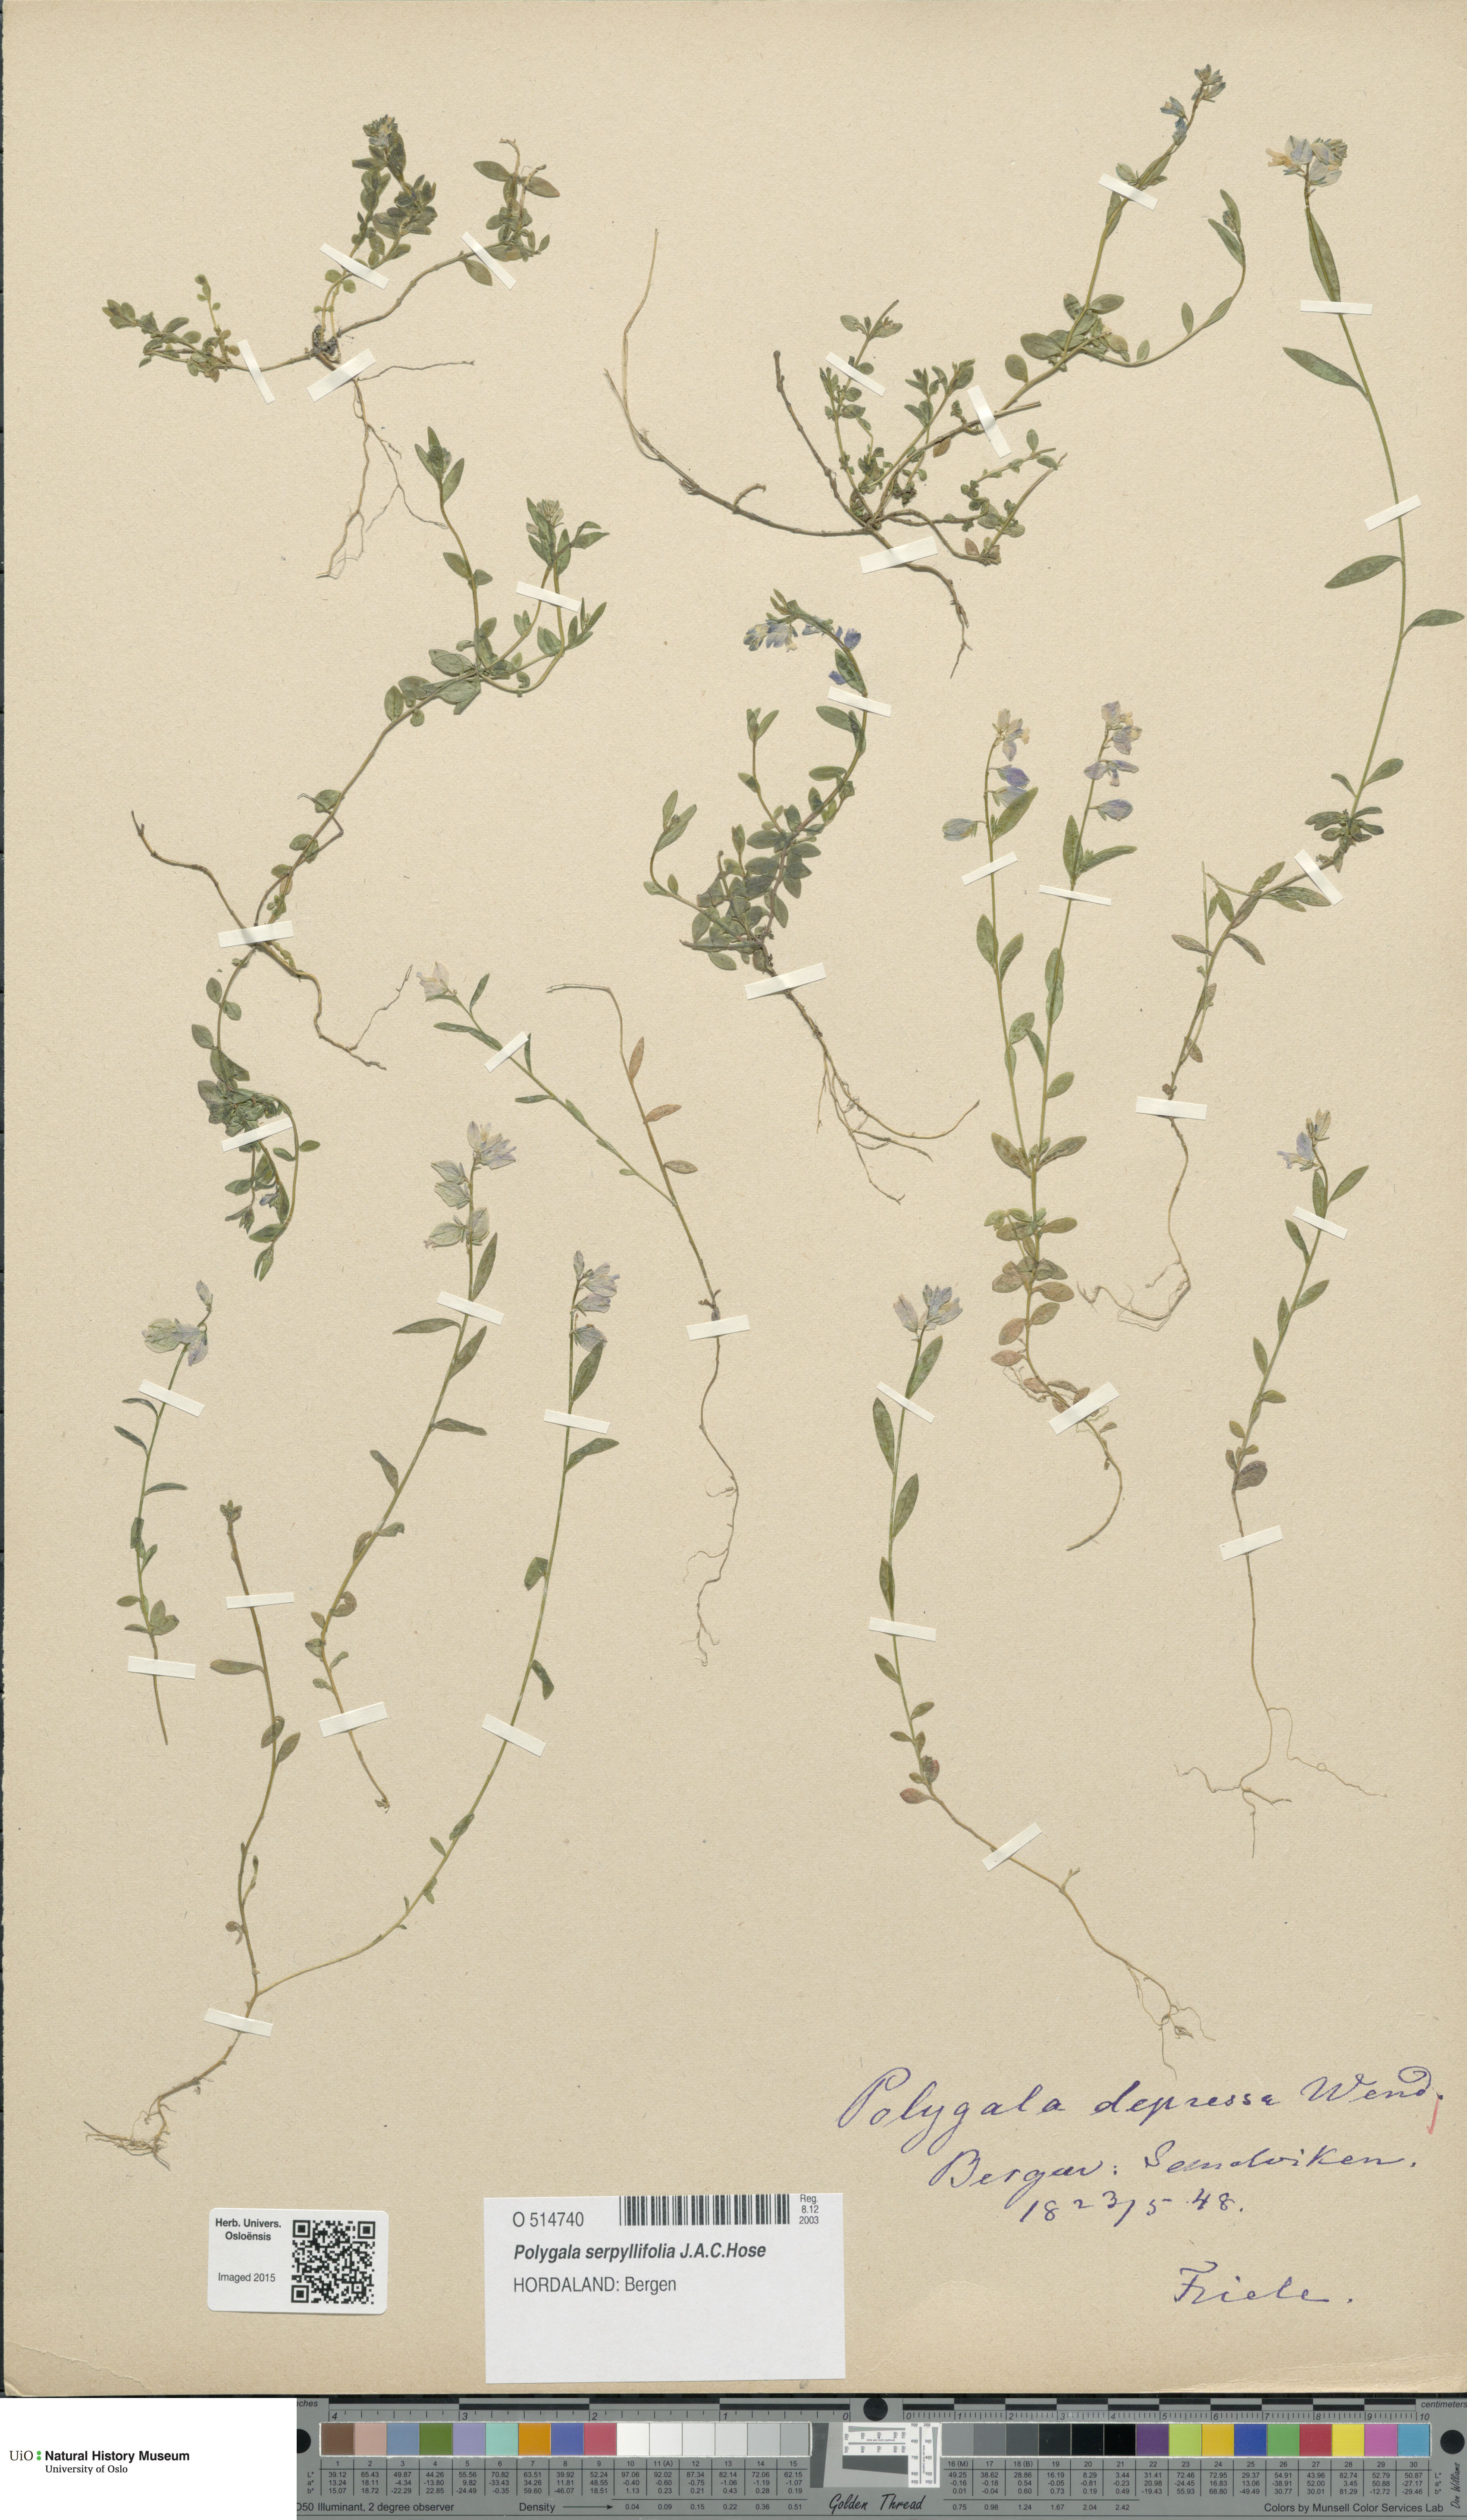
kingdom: Plantae
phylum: Tracheophyta
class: Magnoliopsida
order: Fabales
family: Polygalaceae
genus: Polygala
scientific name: Polygala serpyllifolia
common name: Heath milkwort
